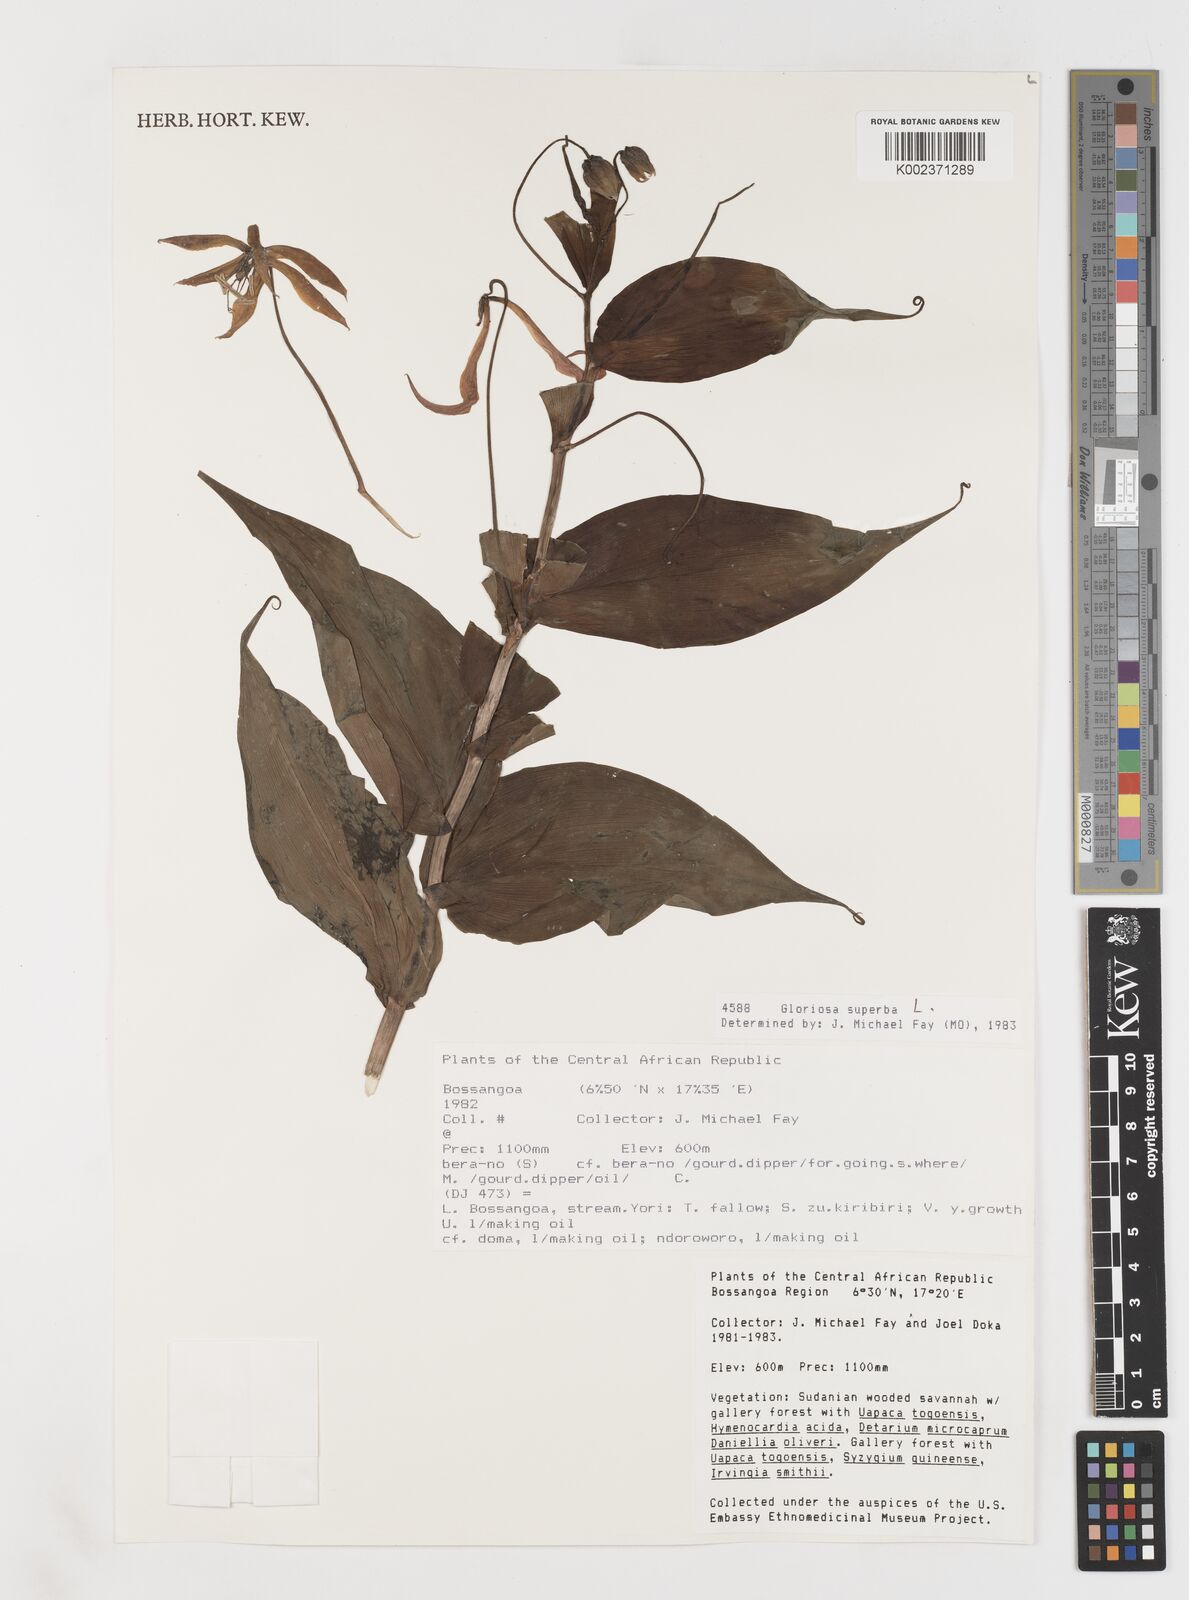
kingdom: Plantae
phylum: Tracheophyta
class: Liliopsida
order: Liliales
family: Colchicaceae
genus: Gloriosa
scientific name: Gloriosa simplex
